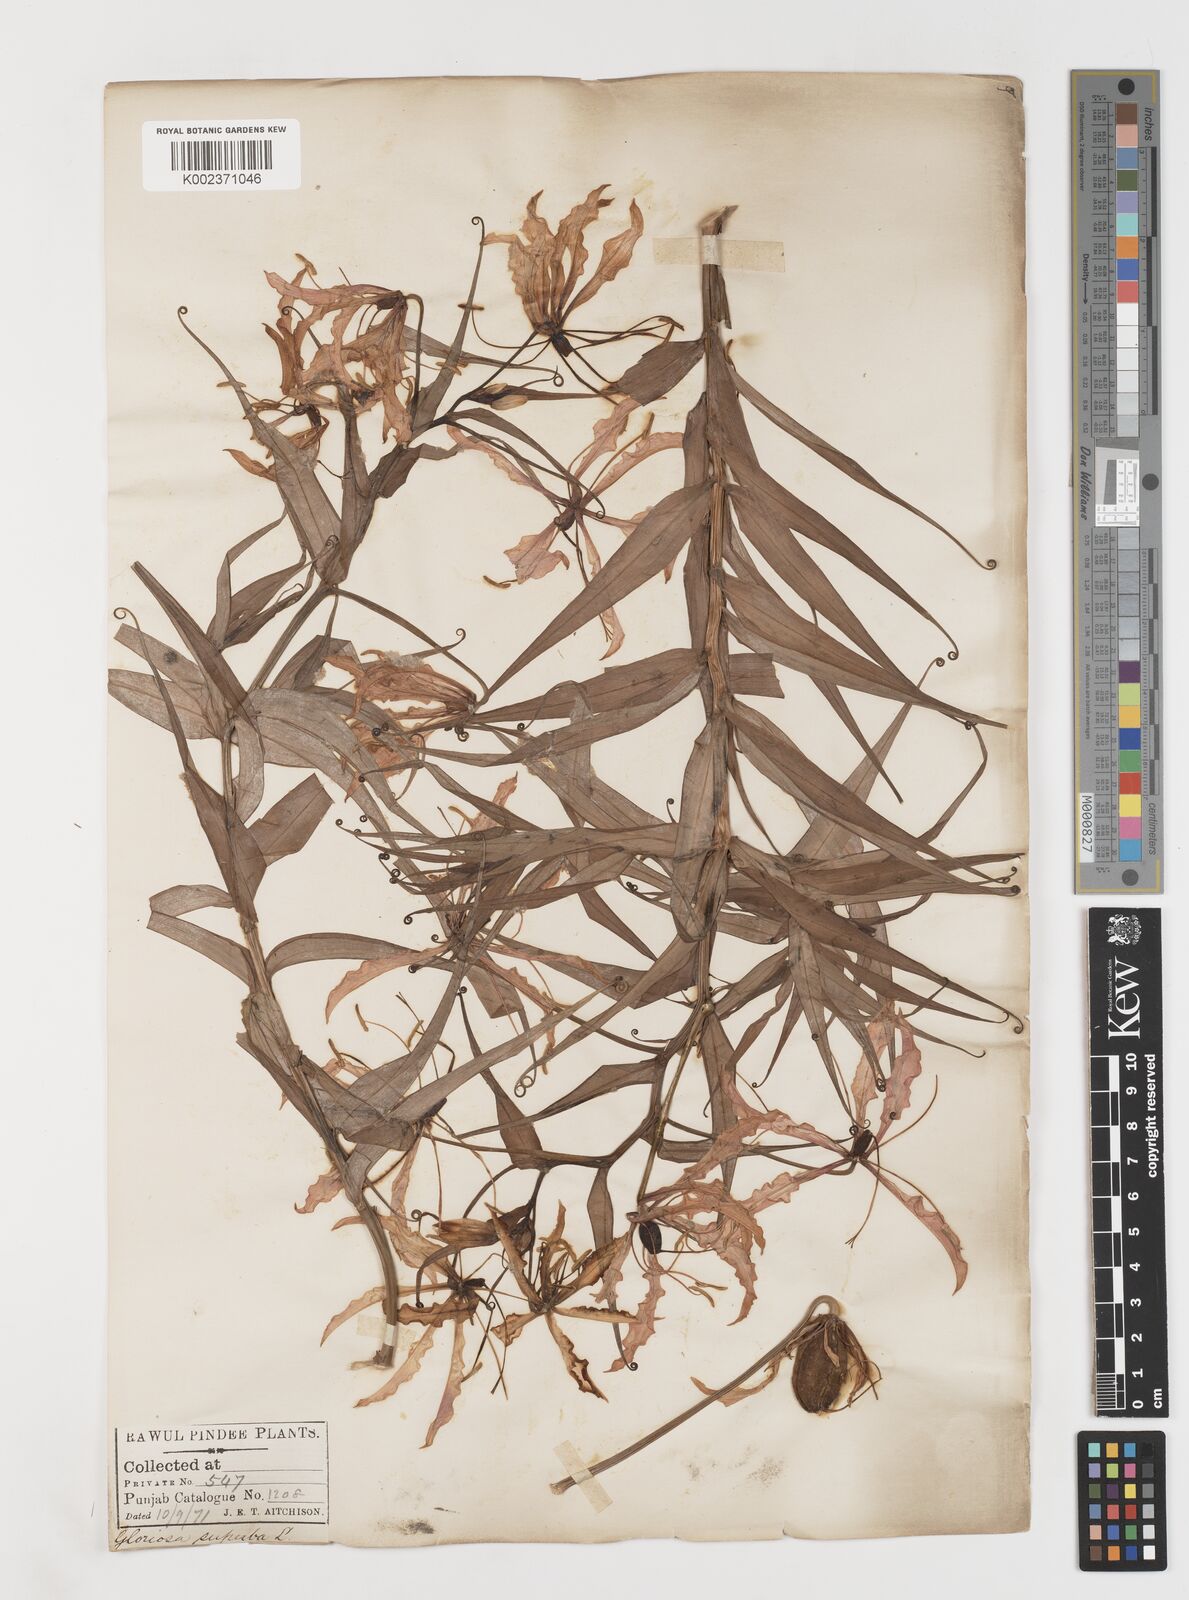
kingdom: Plantae
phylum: Tracheophyta
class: Liliopsida
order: Liliales
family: Colchicaceae
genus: Gloriosa
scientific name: Gloriosa superba
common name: Flame lily
